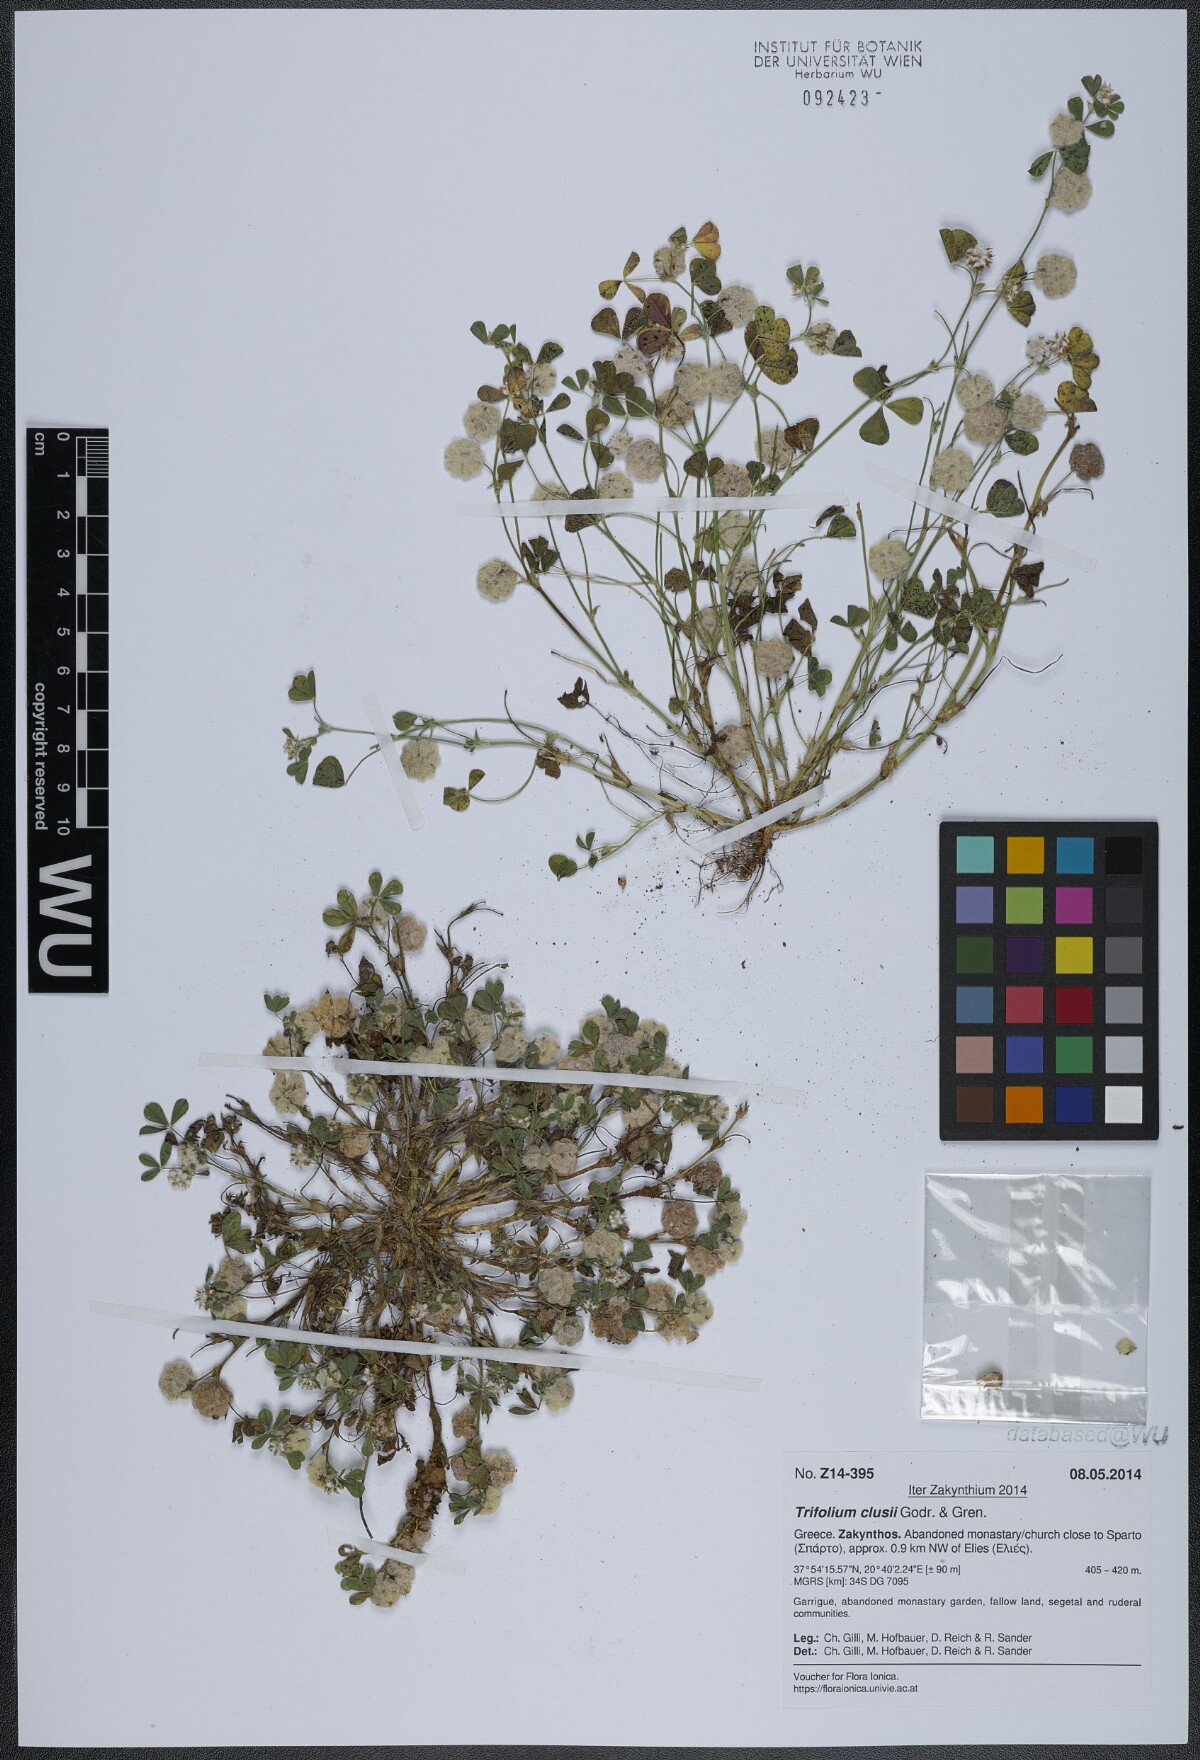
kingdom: Plantae
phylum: Tracheophyta
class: Magnoliopsida
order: Fabales
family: Fabaceae
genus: Trifolium
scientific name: Trifolium clusii
